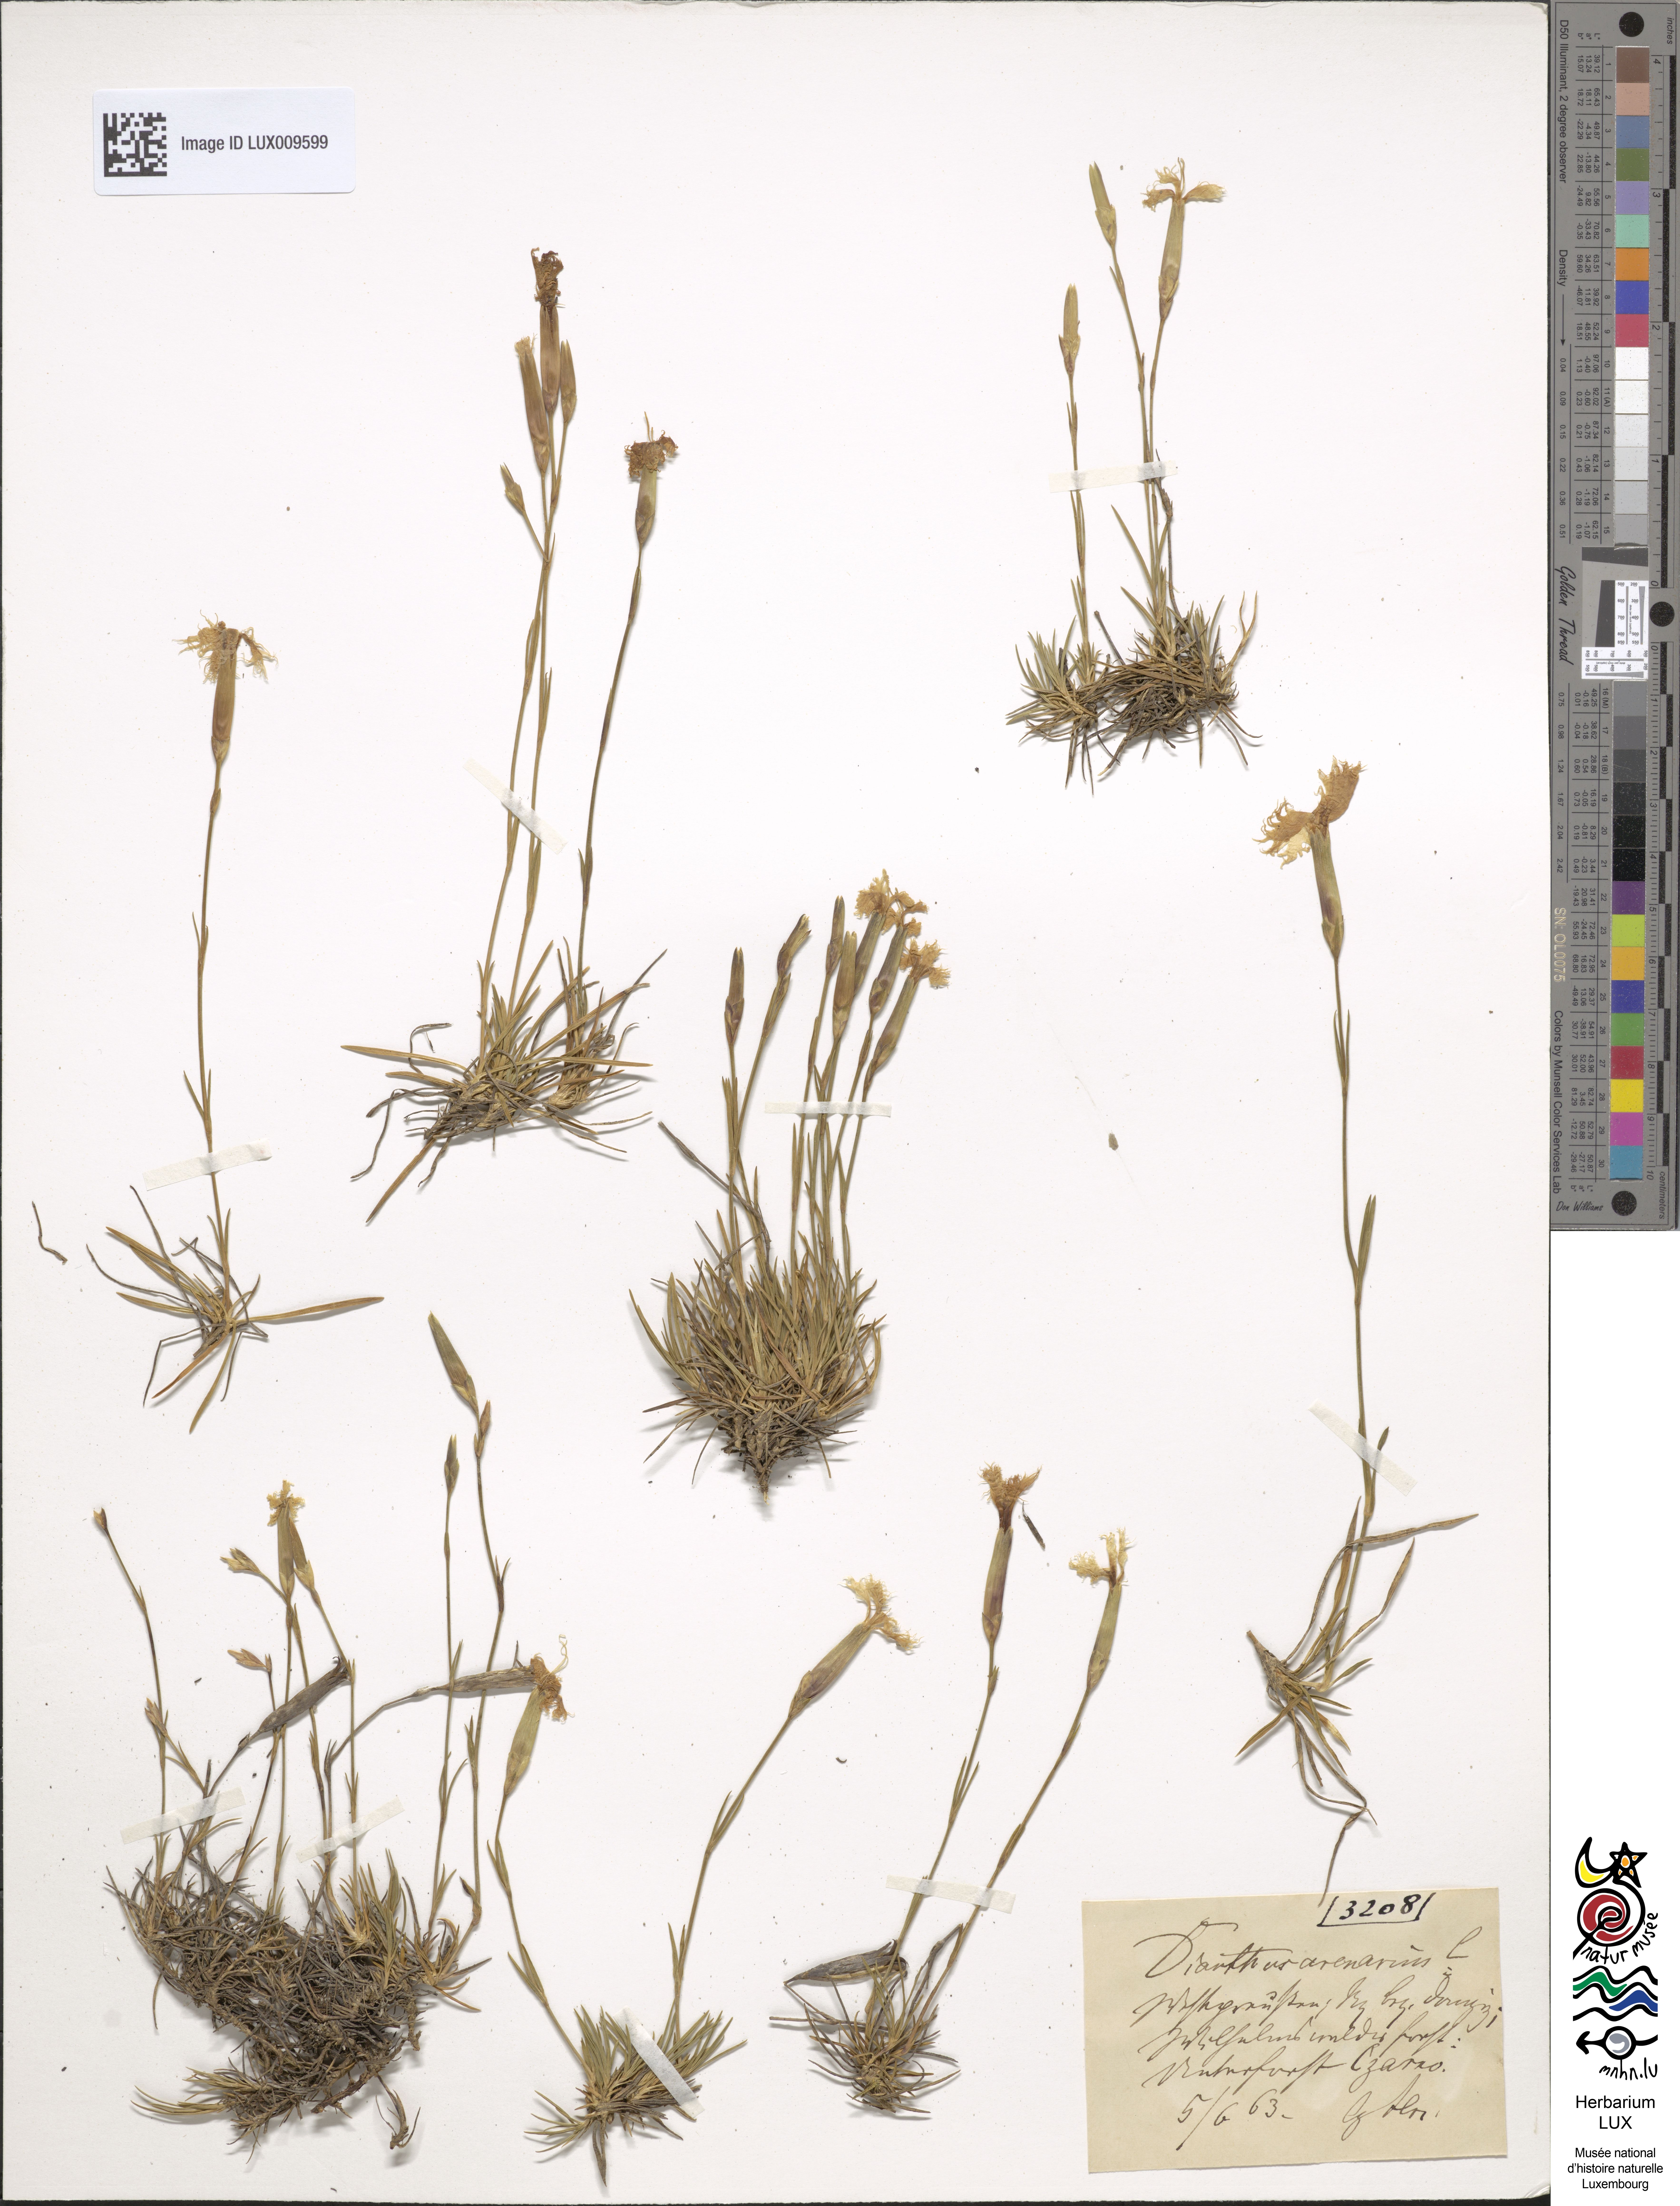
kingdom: Plantae
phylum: Tracheophyta
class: Magnoliopsida
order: Caryophyllales
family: Caryophyllaceae
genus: Dianthus
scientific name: Dianthus arenarius
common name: Stone pink
